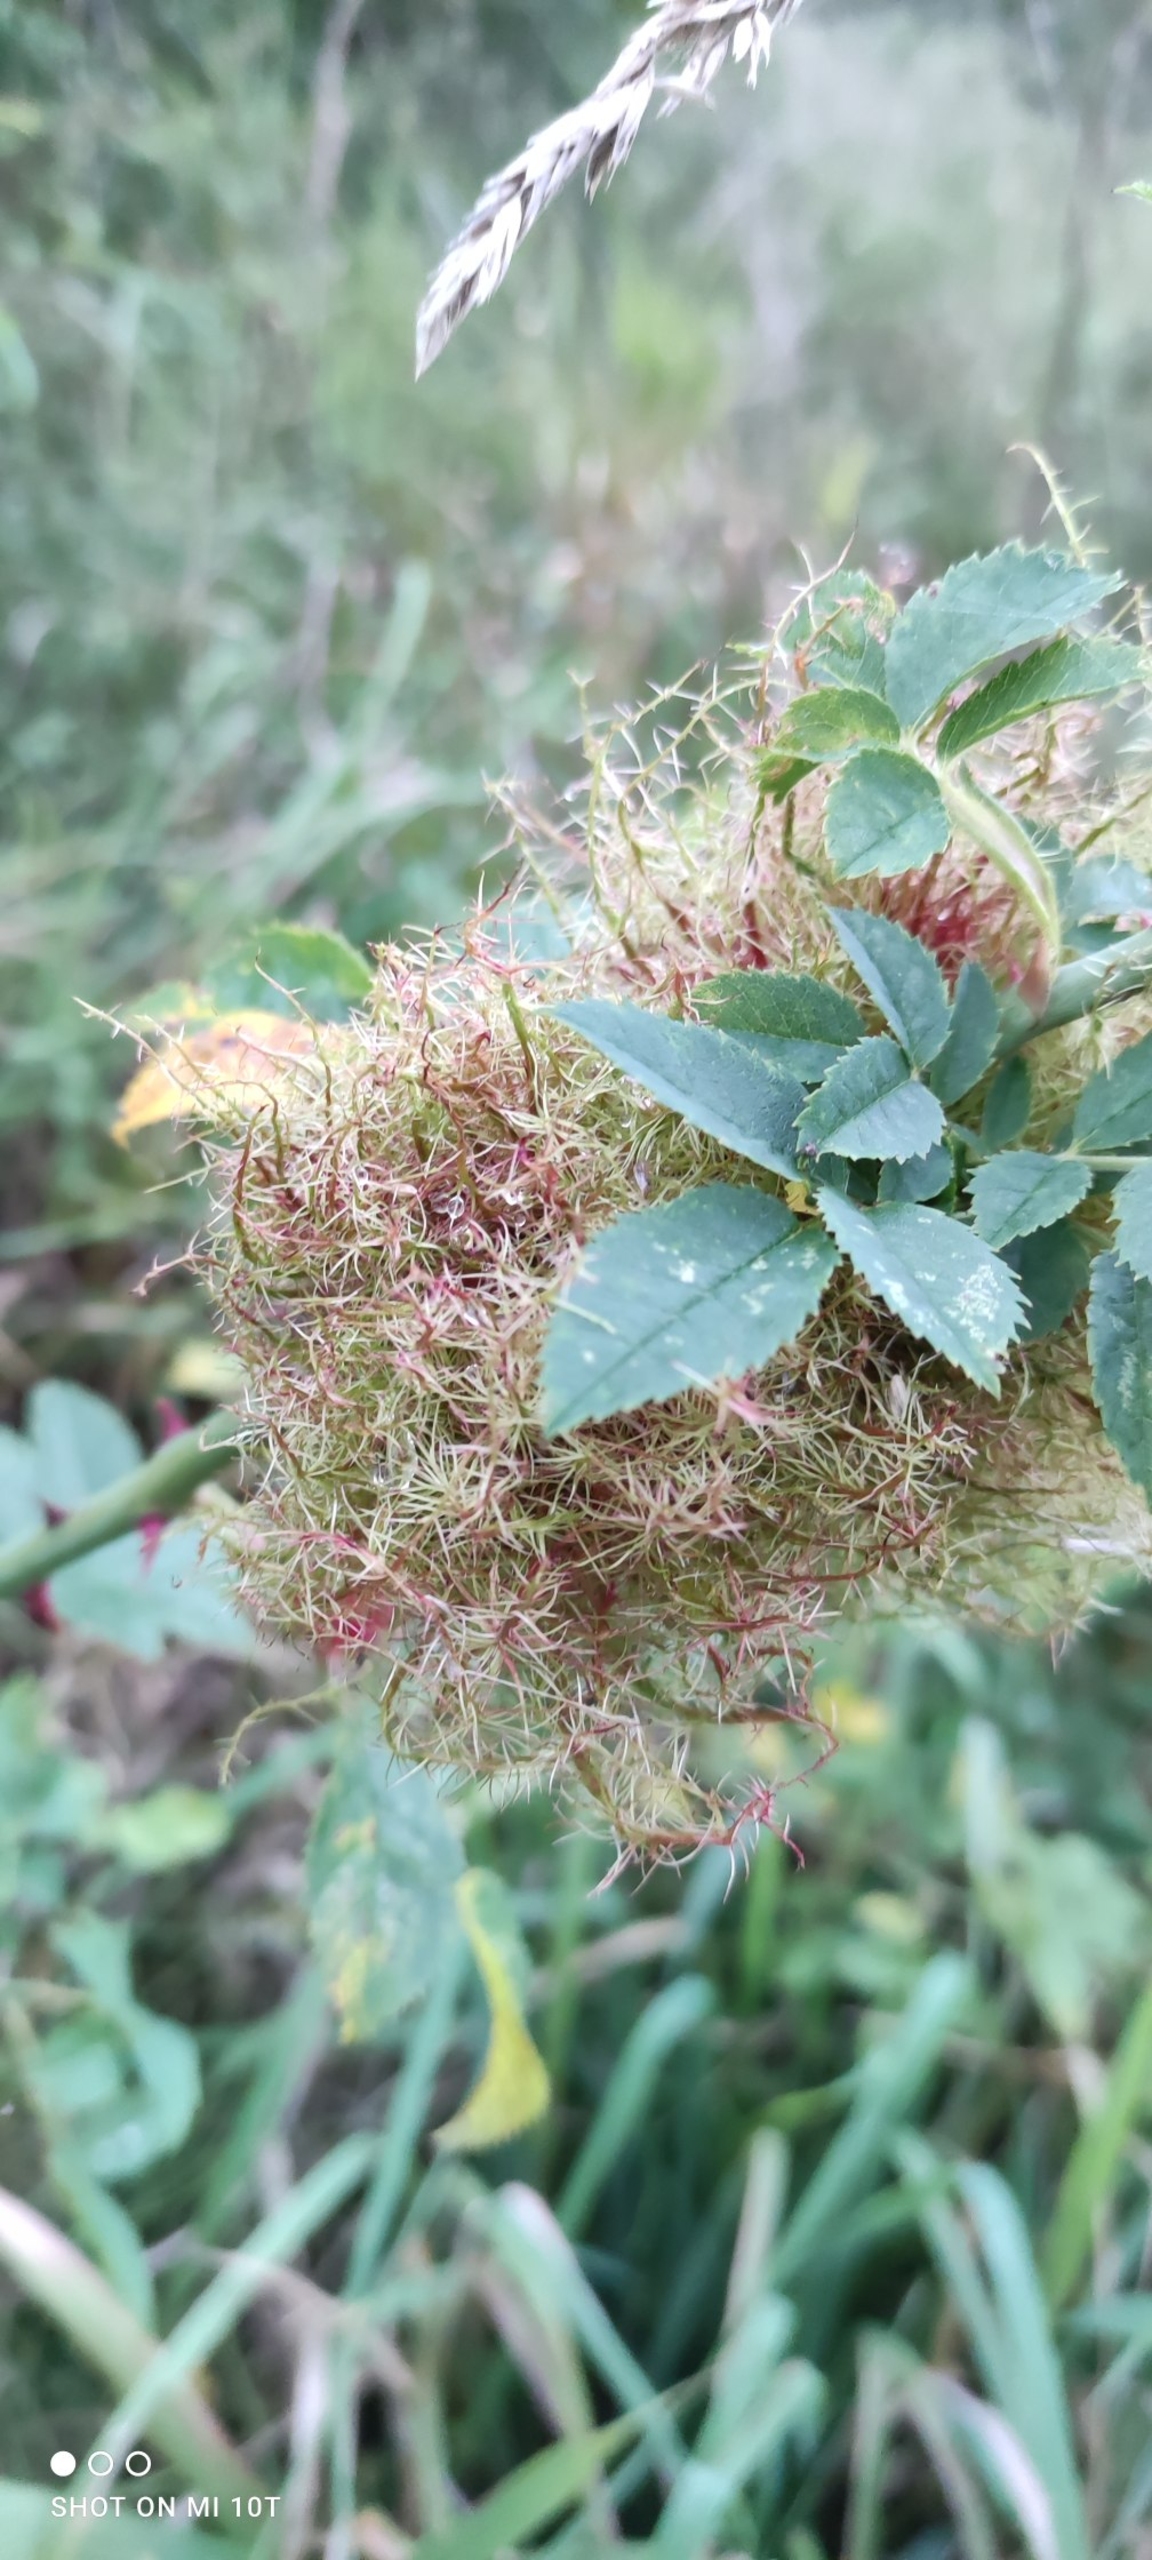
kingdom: Animalia
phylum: Arthropoda
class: Insecta
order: Hymenoptera
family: Cynipidae
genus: Diplolepis
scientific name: Diplolepis rosae
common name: Bedeguargalhveps
